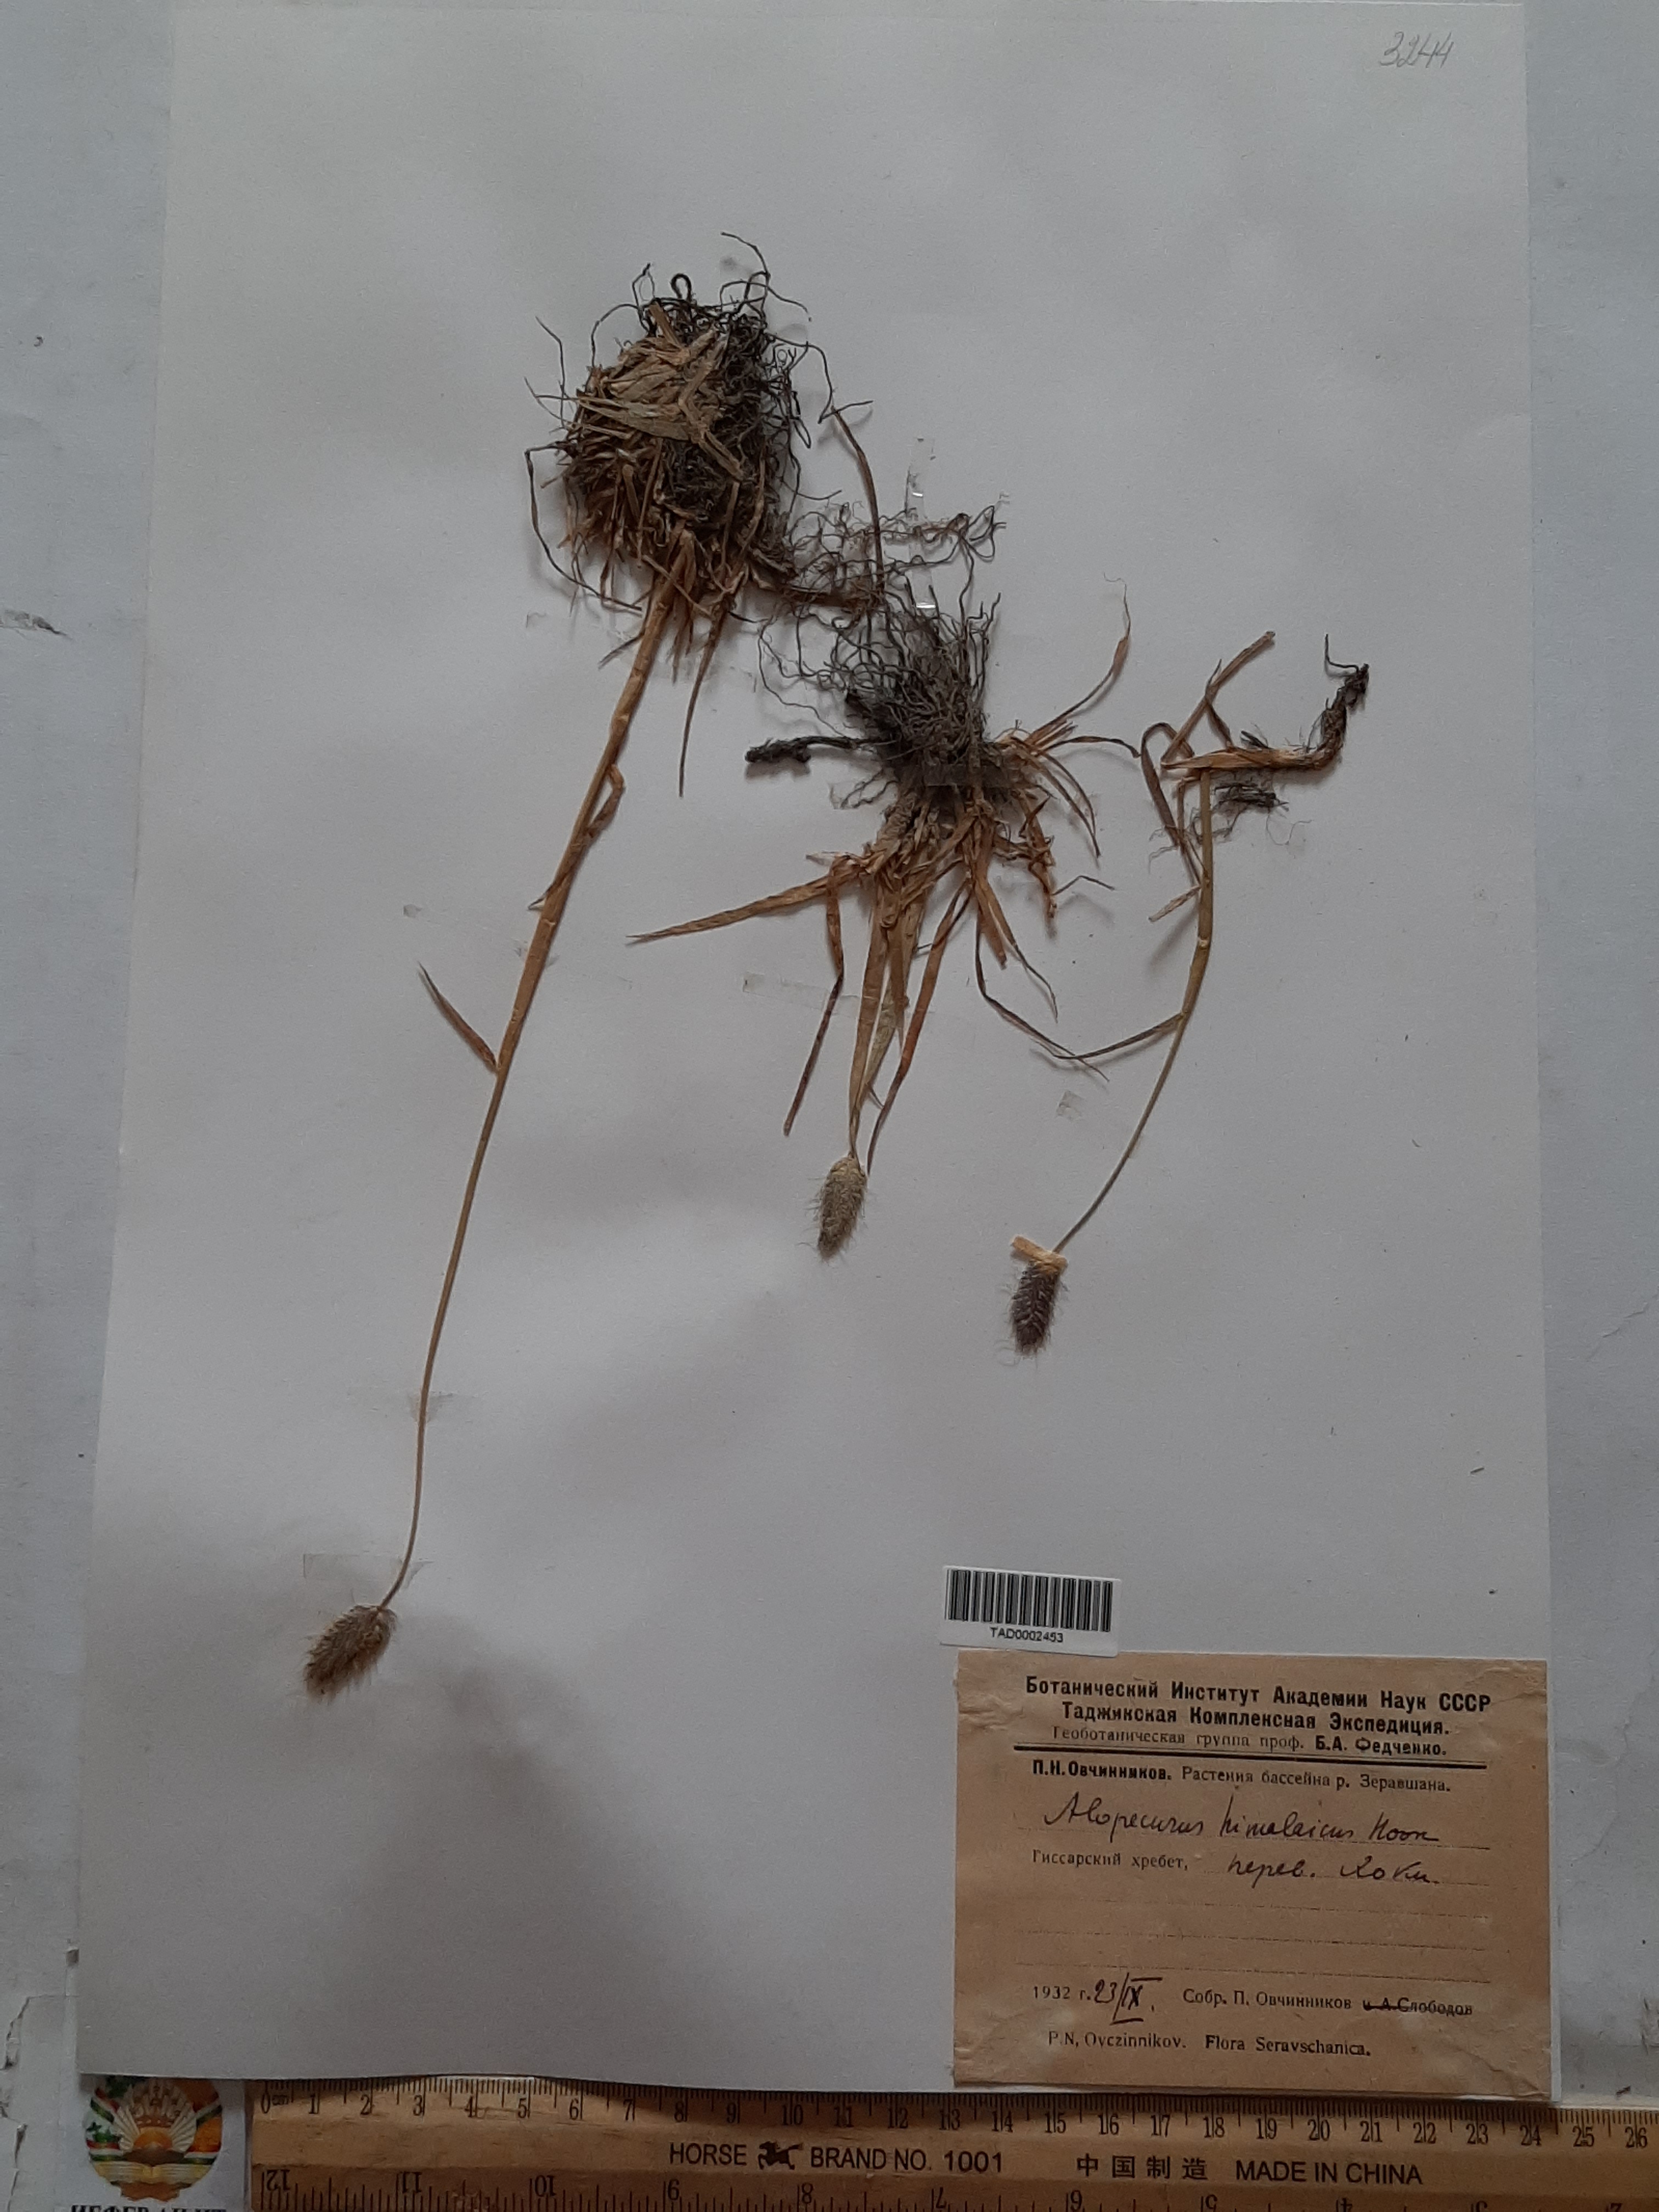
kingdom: Plantae
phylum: Tracheophyta
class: Liliopsida
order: Poales
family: Poaceae
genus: Alopecurus
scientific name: Alopecurus himalaicus
